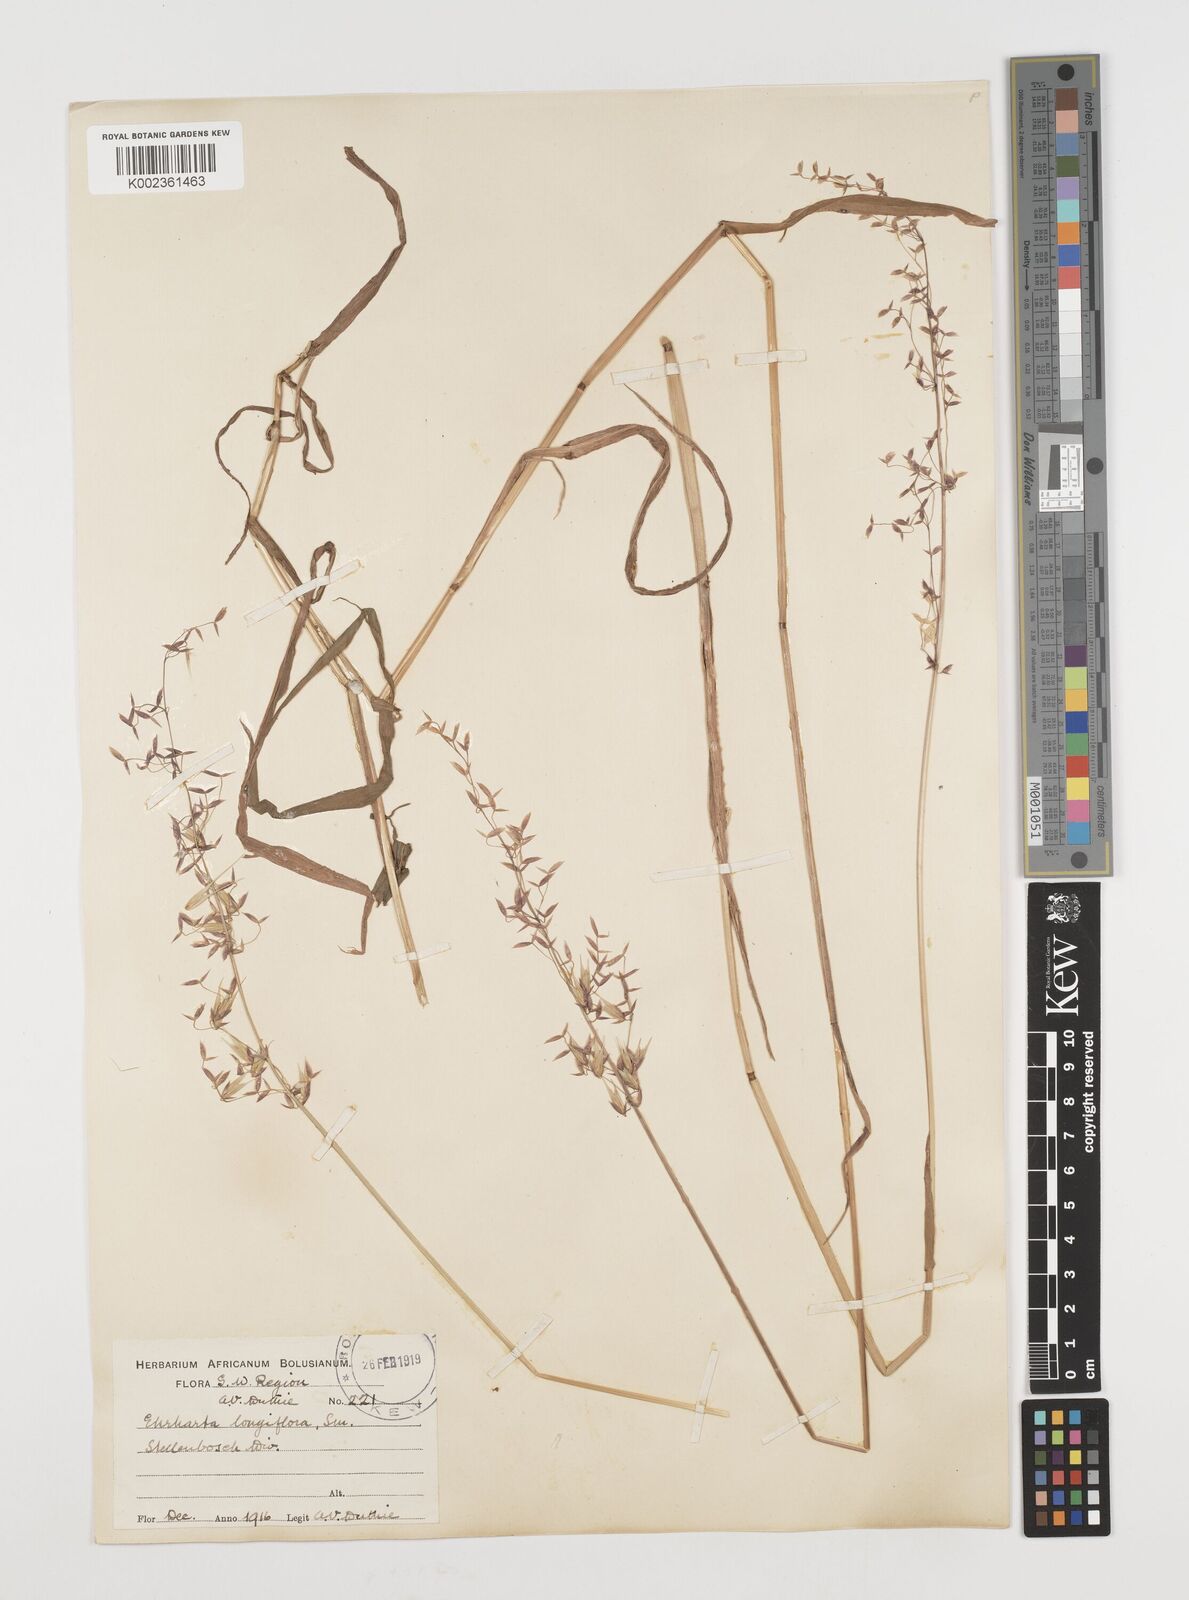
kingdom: Plantae
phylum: Tracheophyta
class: Liliopsida
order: Poales
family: Poaceae
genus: Ehrharta
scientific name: Ehrharta longiflora
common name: Longflowered veldtgrass
